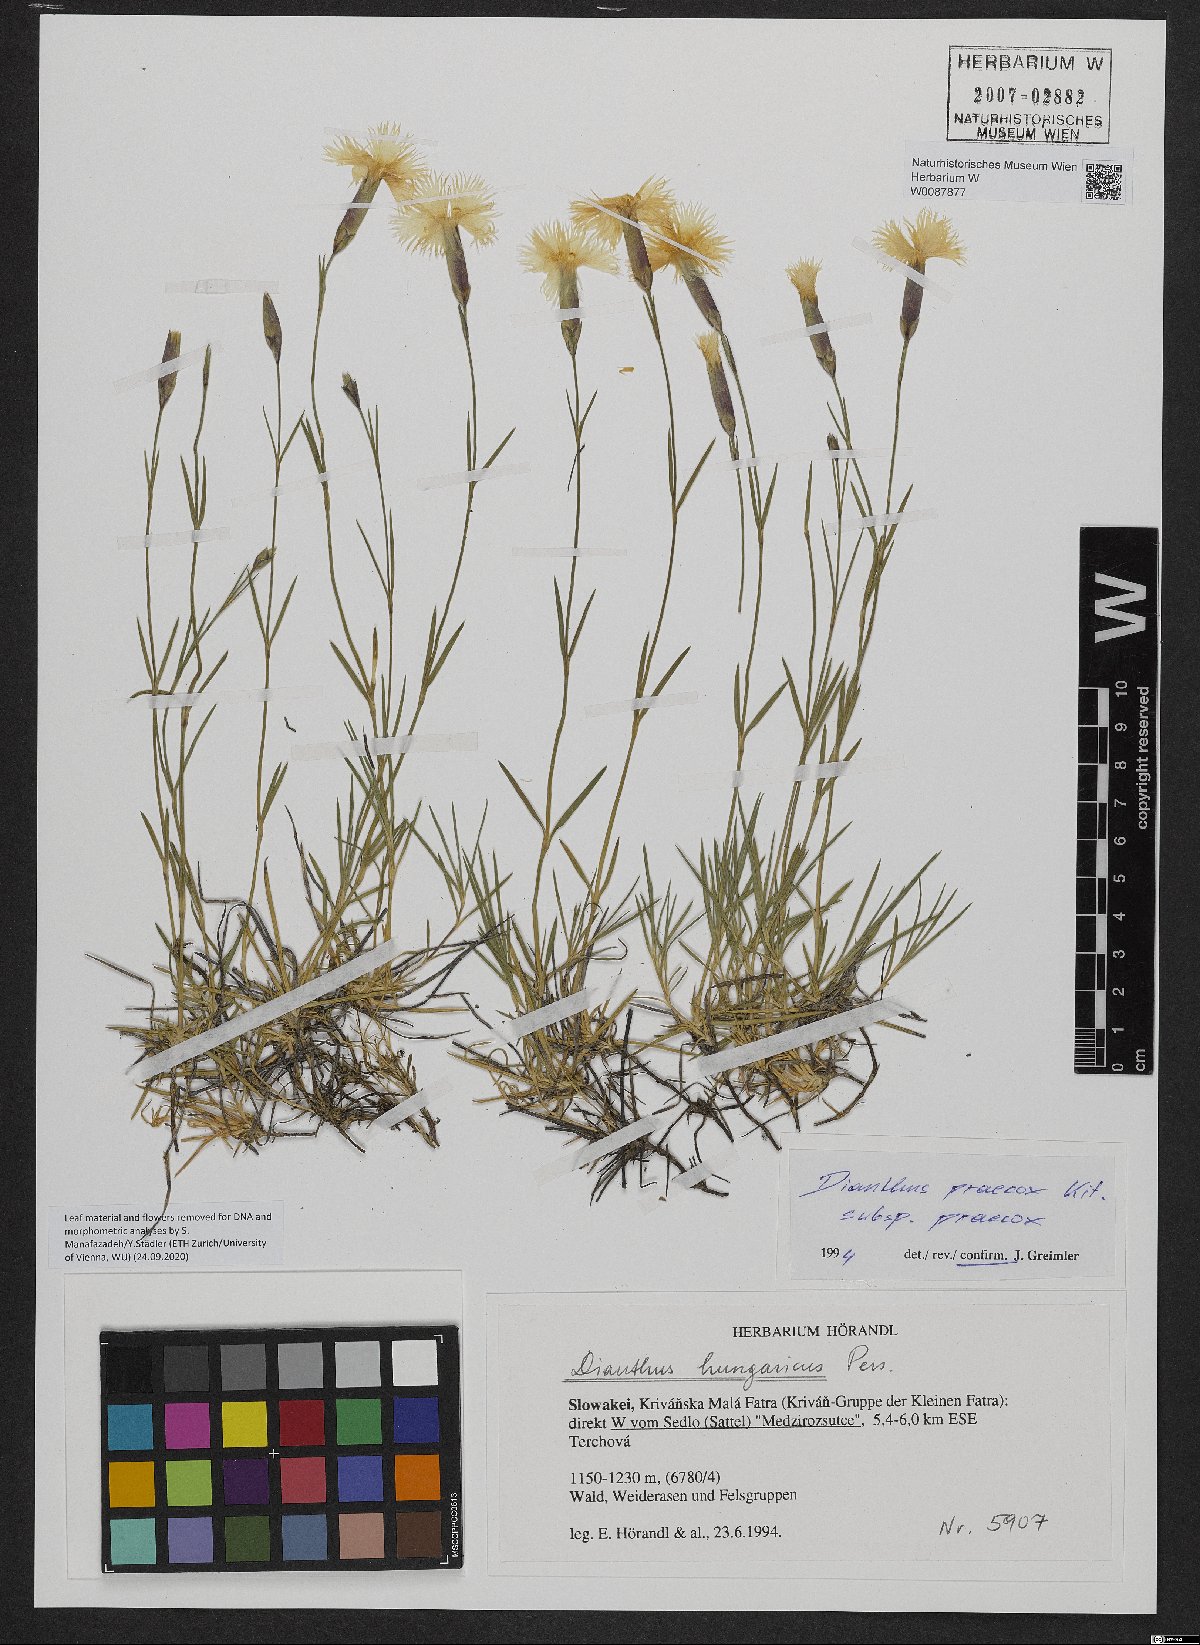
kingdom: Plantae
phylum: Tracheophyta
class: Magnoliopsida
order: Caryophyllales
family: Caryophyllaceae
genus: Dianthus
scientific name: Dianthus praecox
